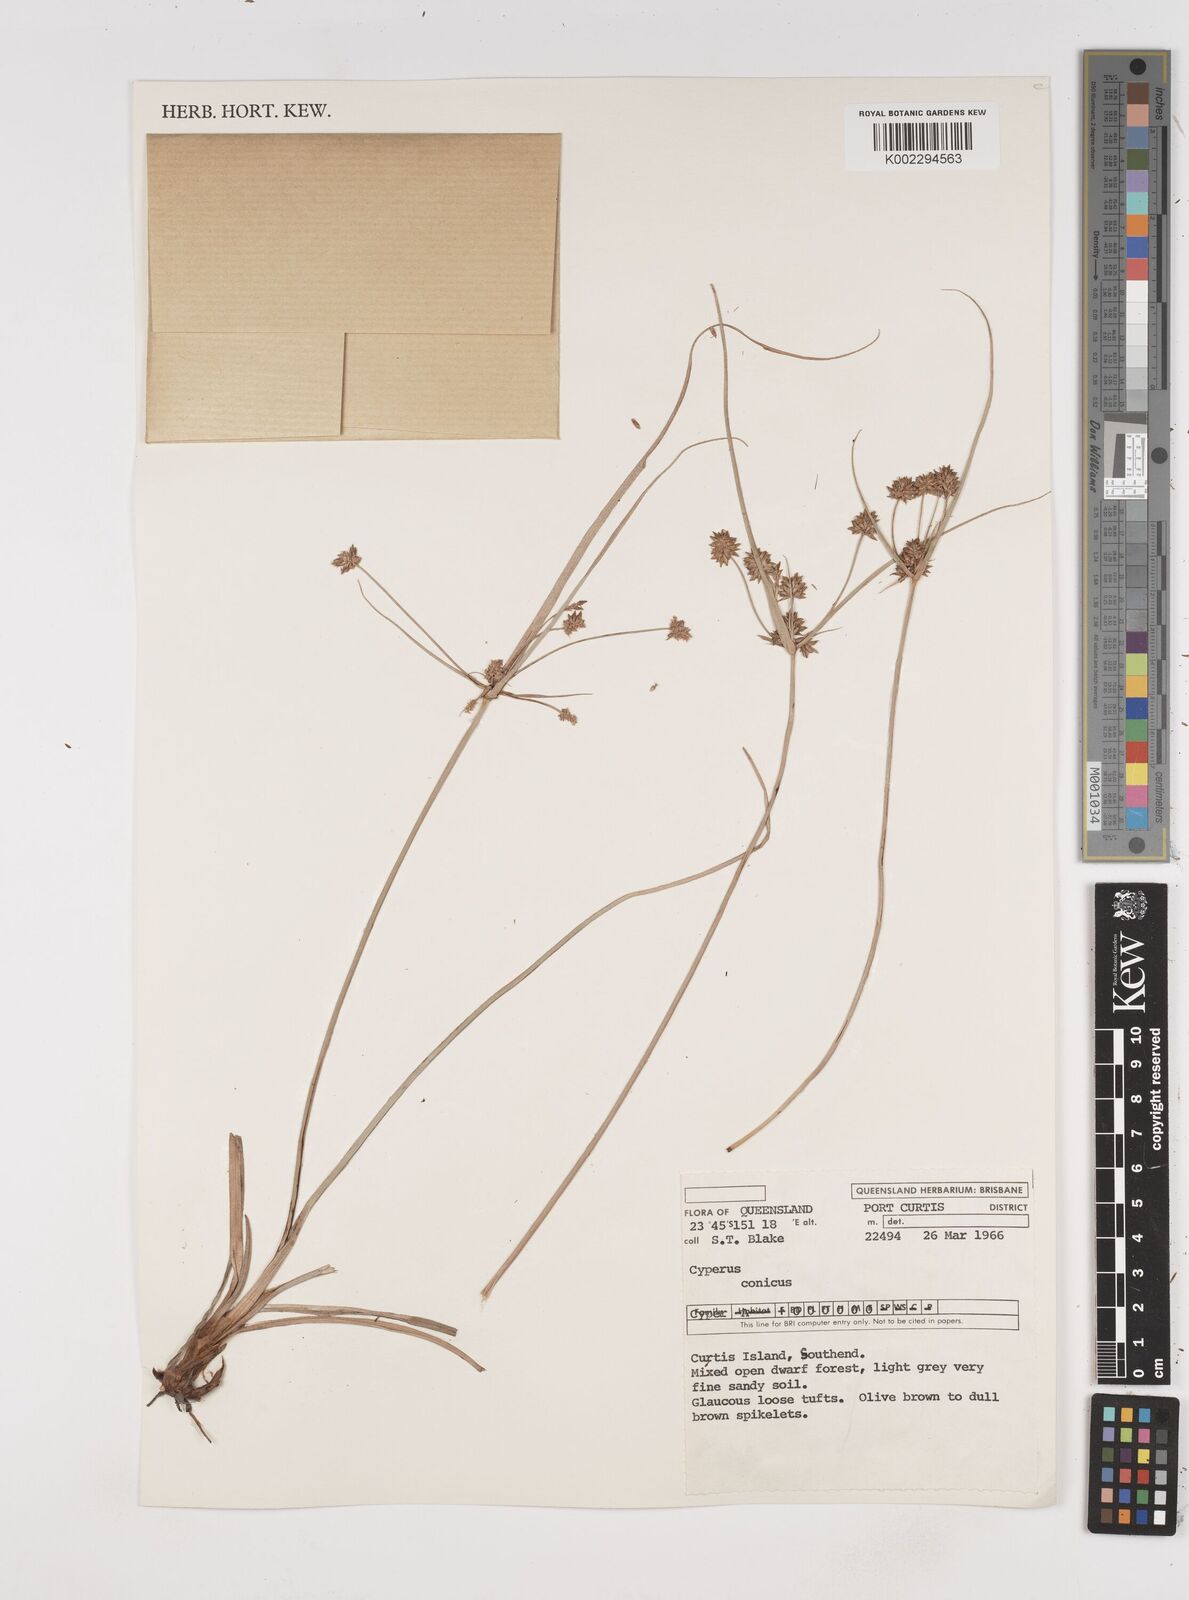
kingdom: Plantae
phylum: Tracheophyta
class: Liliopsida
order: Poales
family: Cyperaceae
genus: Cyperus
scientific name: Cyperus conicus
